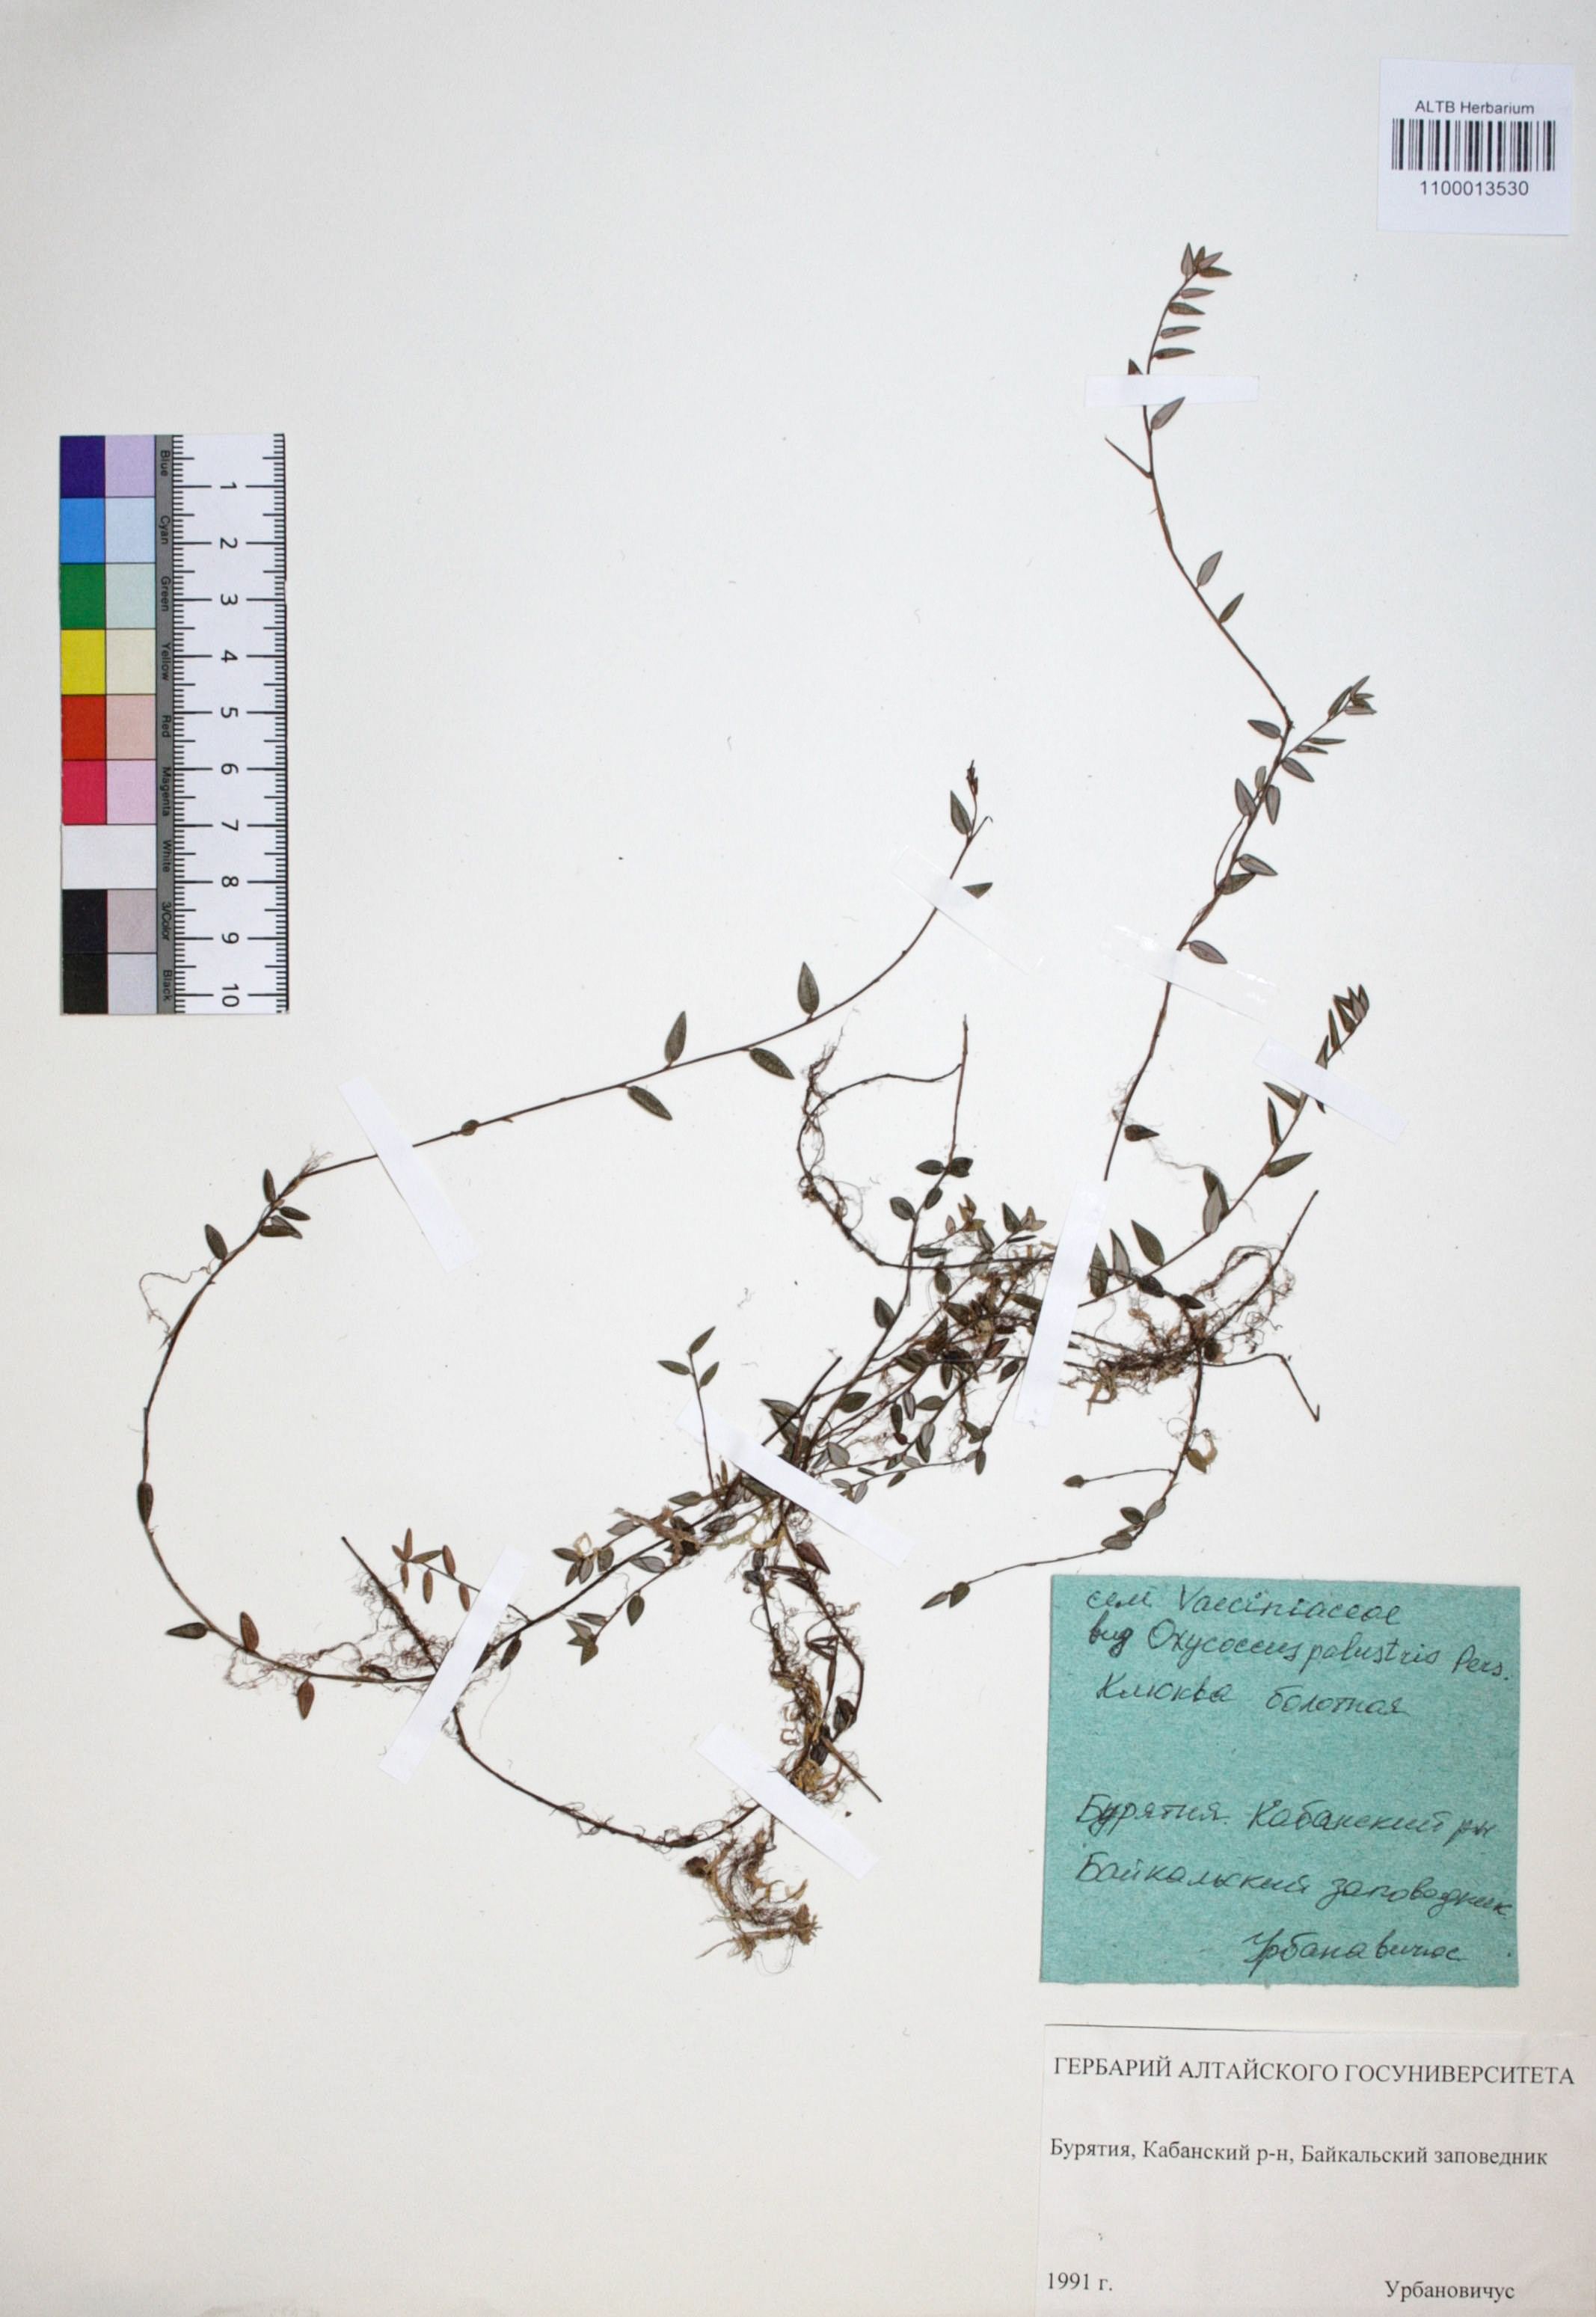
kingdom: Plantae
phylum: Tracheophyta
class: Magnoliopsida
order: Ericales
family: Ericaceae
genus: Vaccinium
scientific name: Vaccinium oxycoccos
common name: Cranberry
